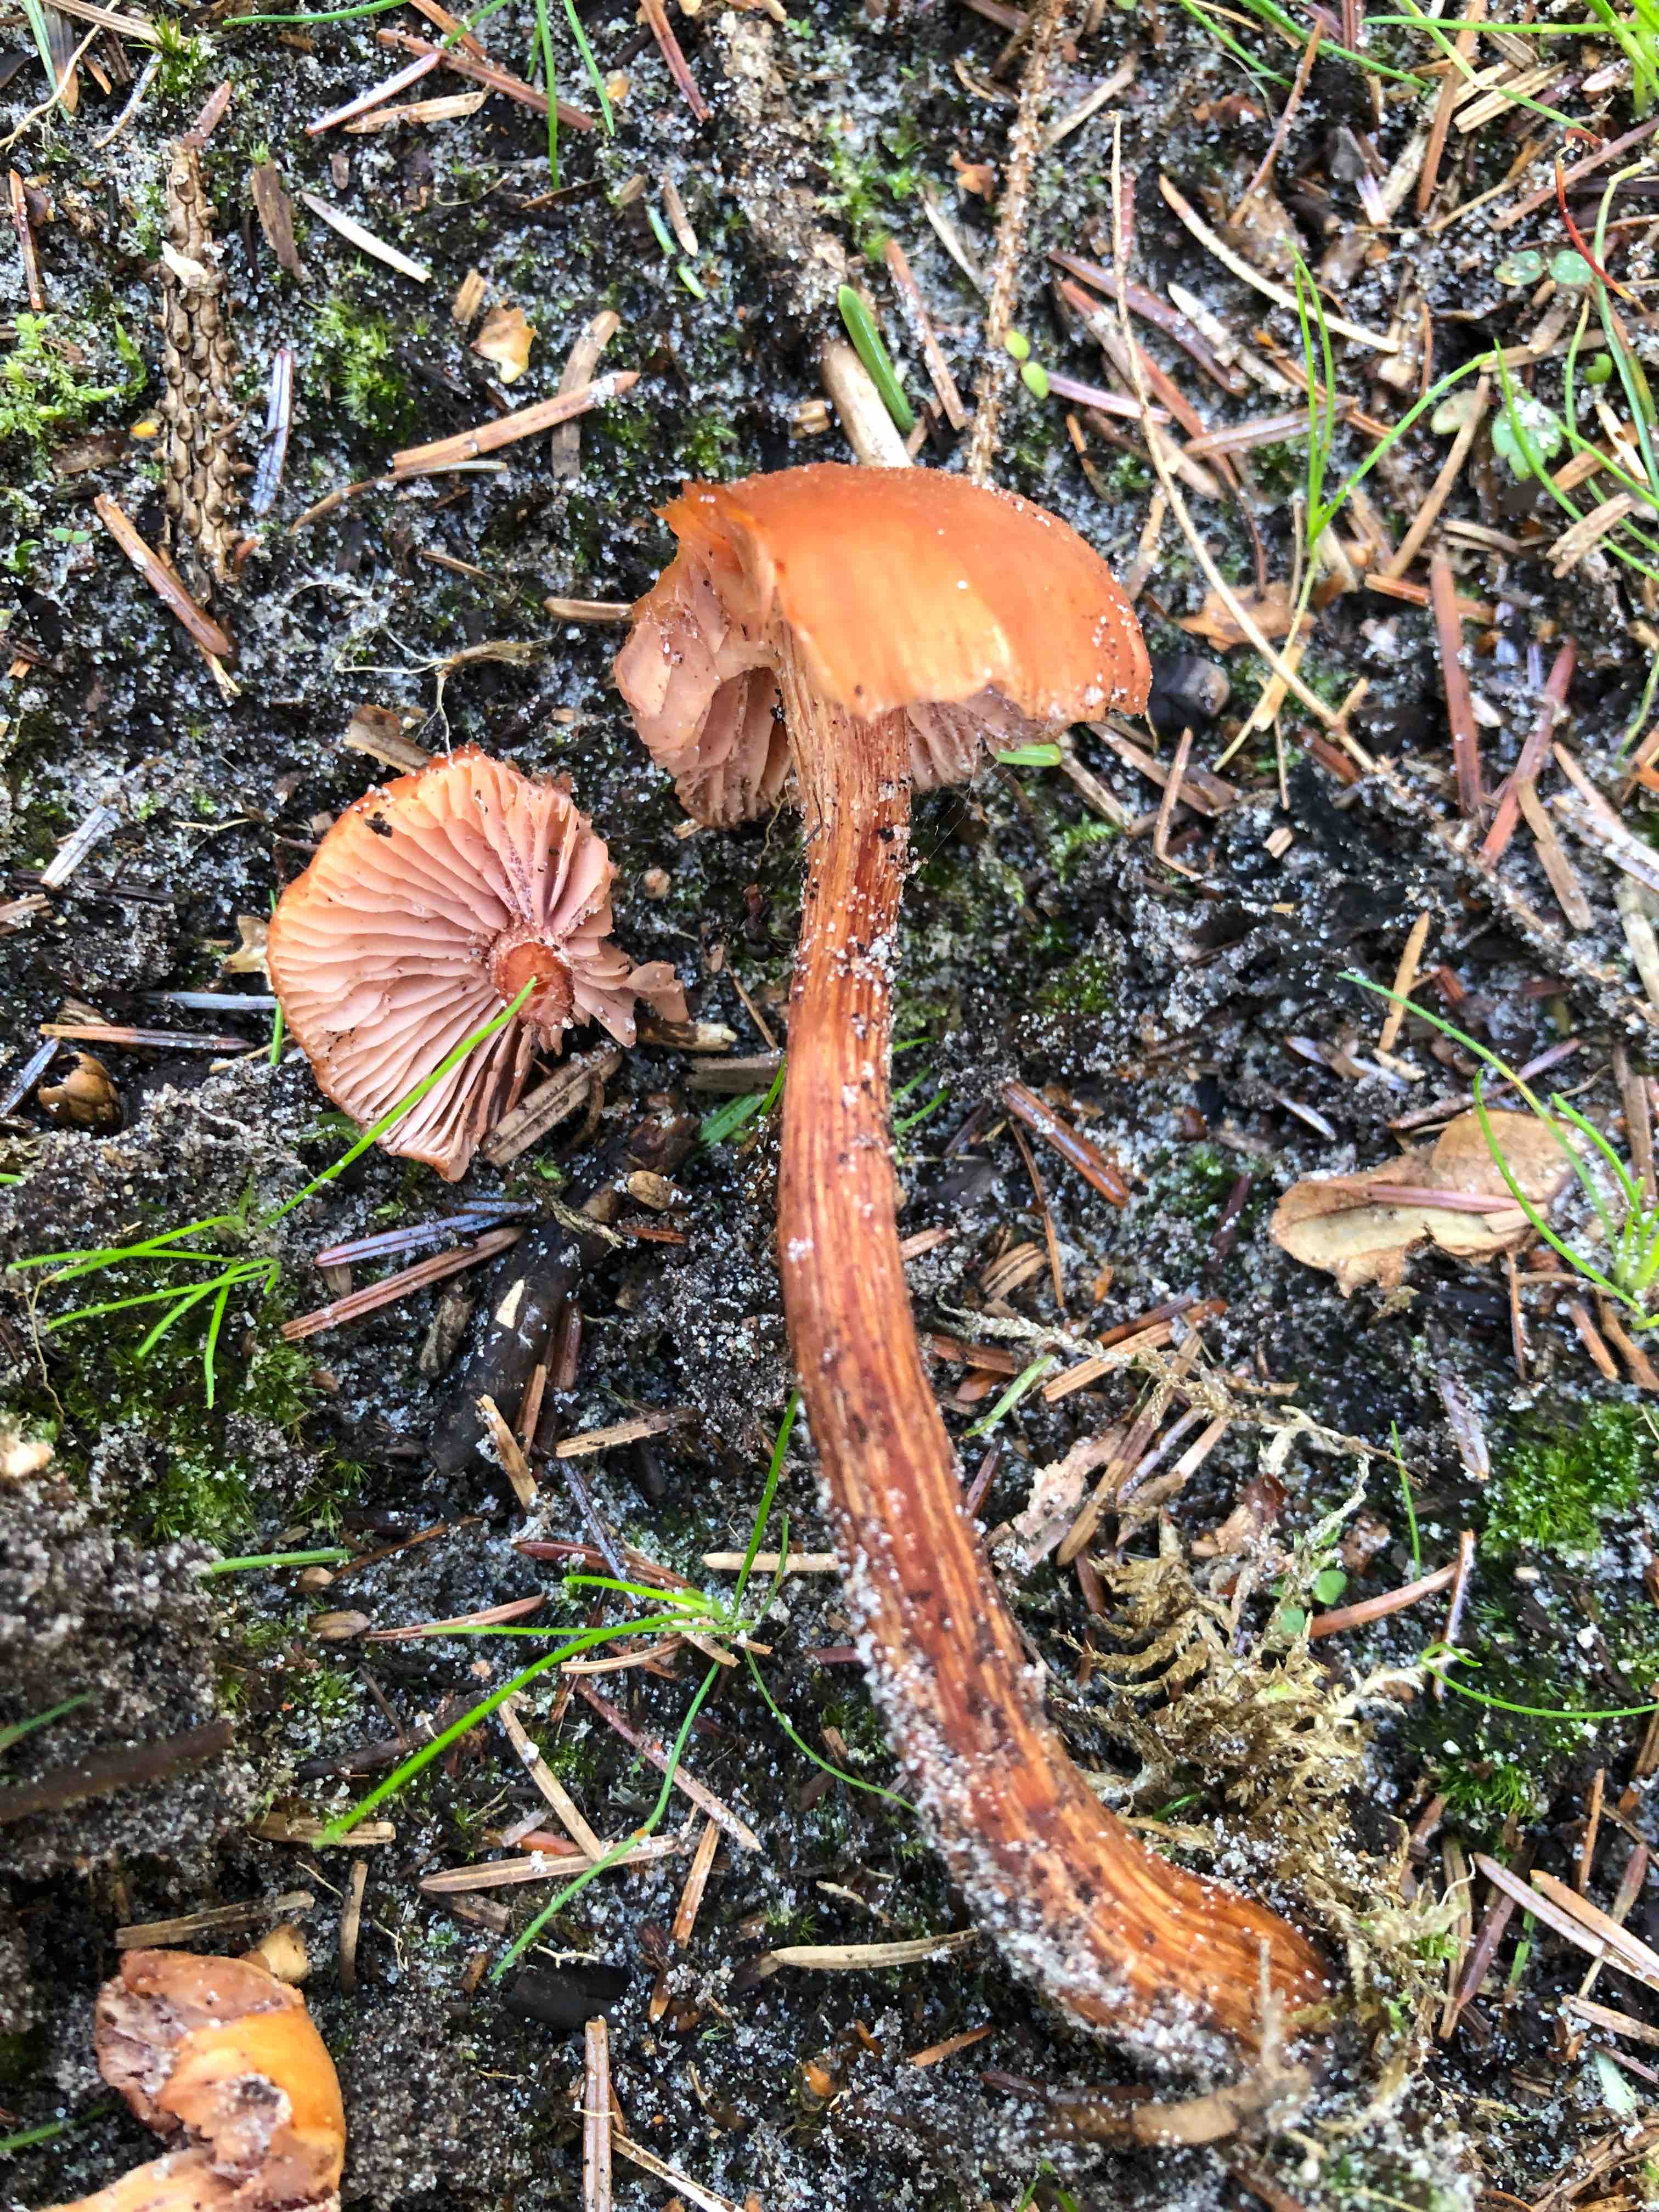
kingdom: Fungi
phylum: Basidiomycota
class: Agaricomycetes
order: Agaricales
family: Hydnangiaceae
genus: Laccaria
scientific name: Laccaria proxima
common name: stor ametysthat
